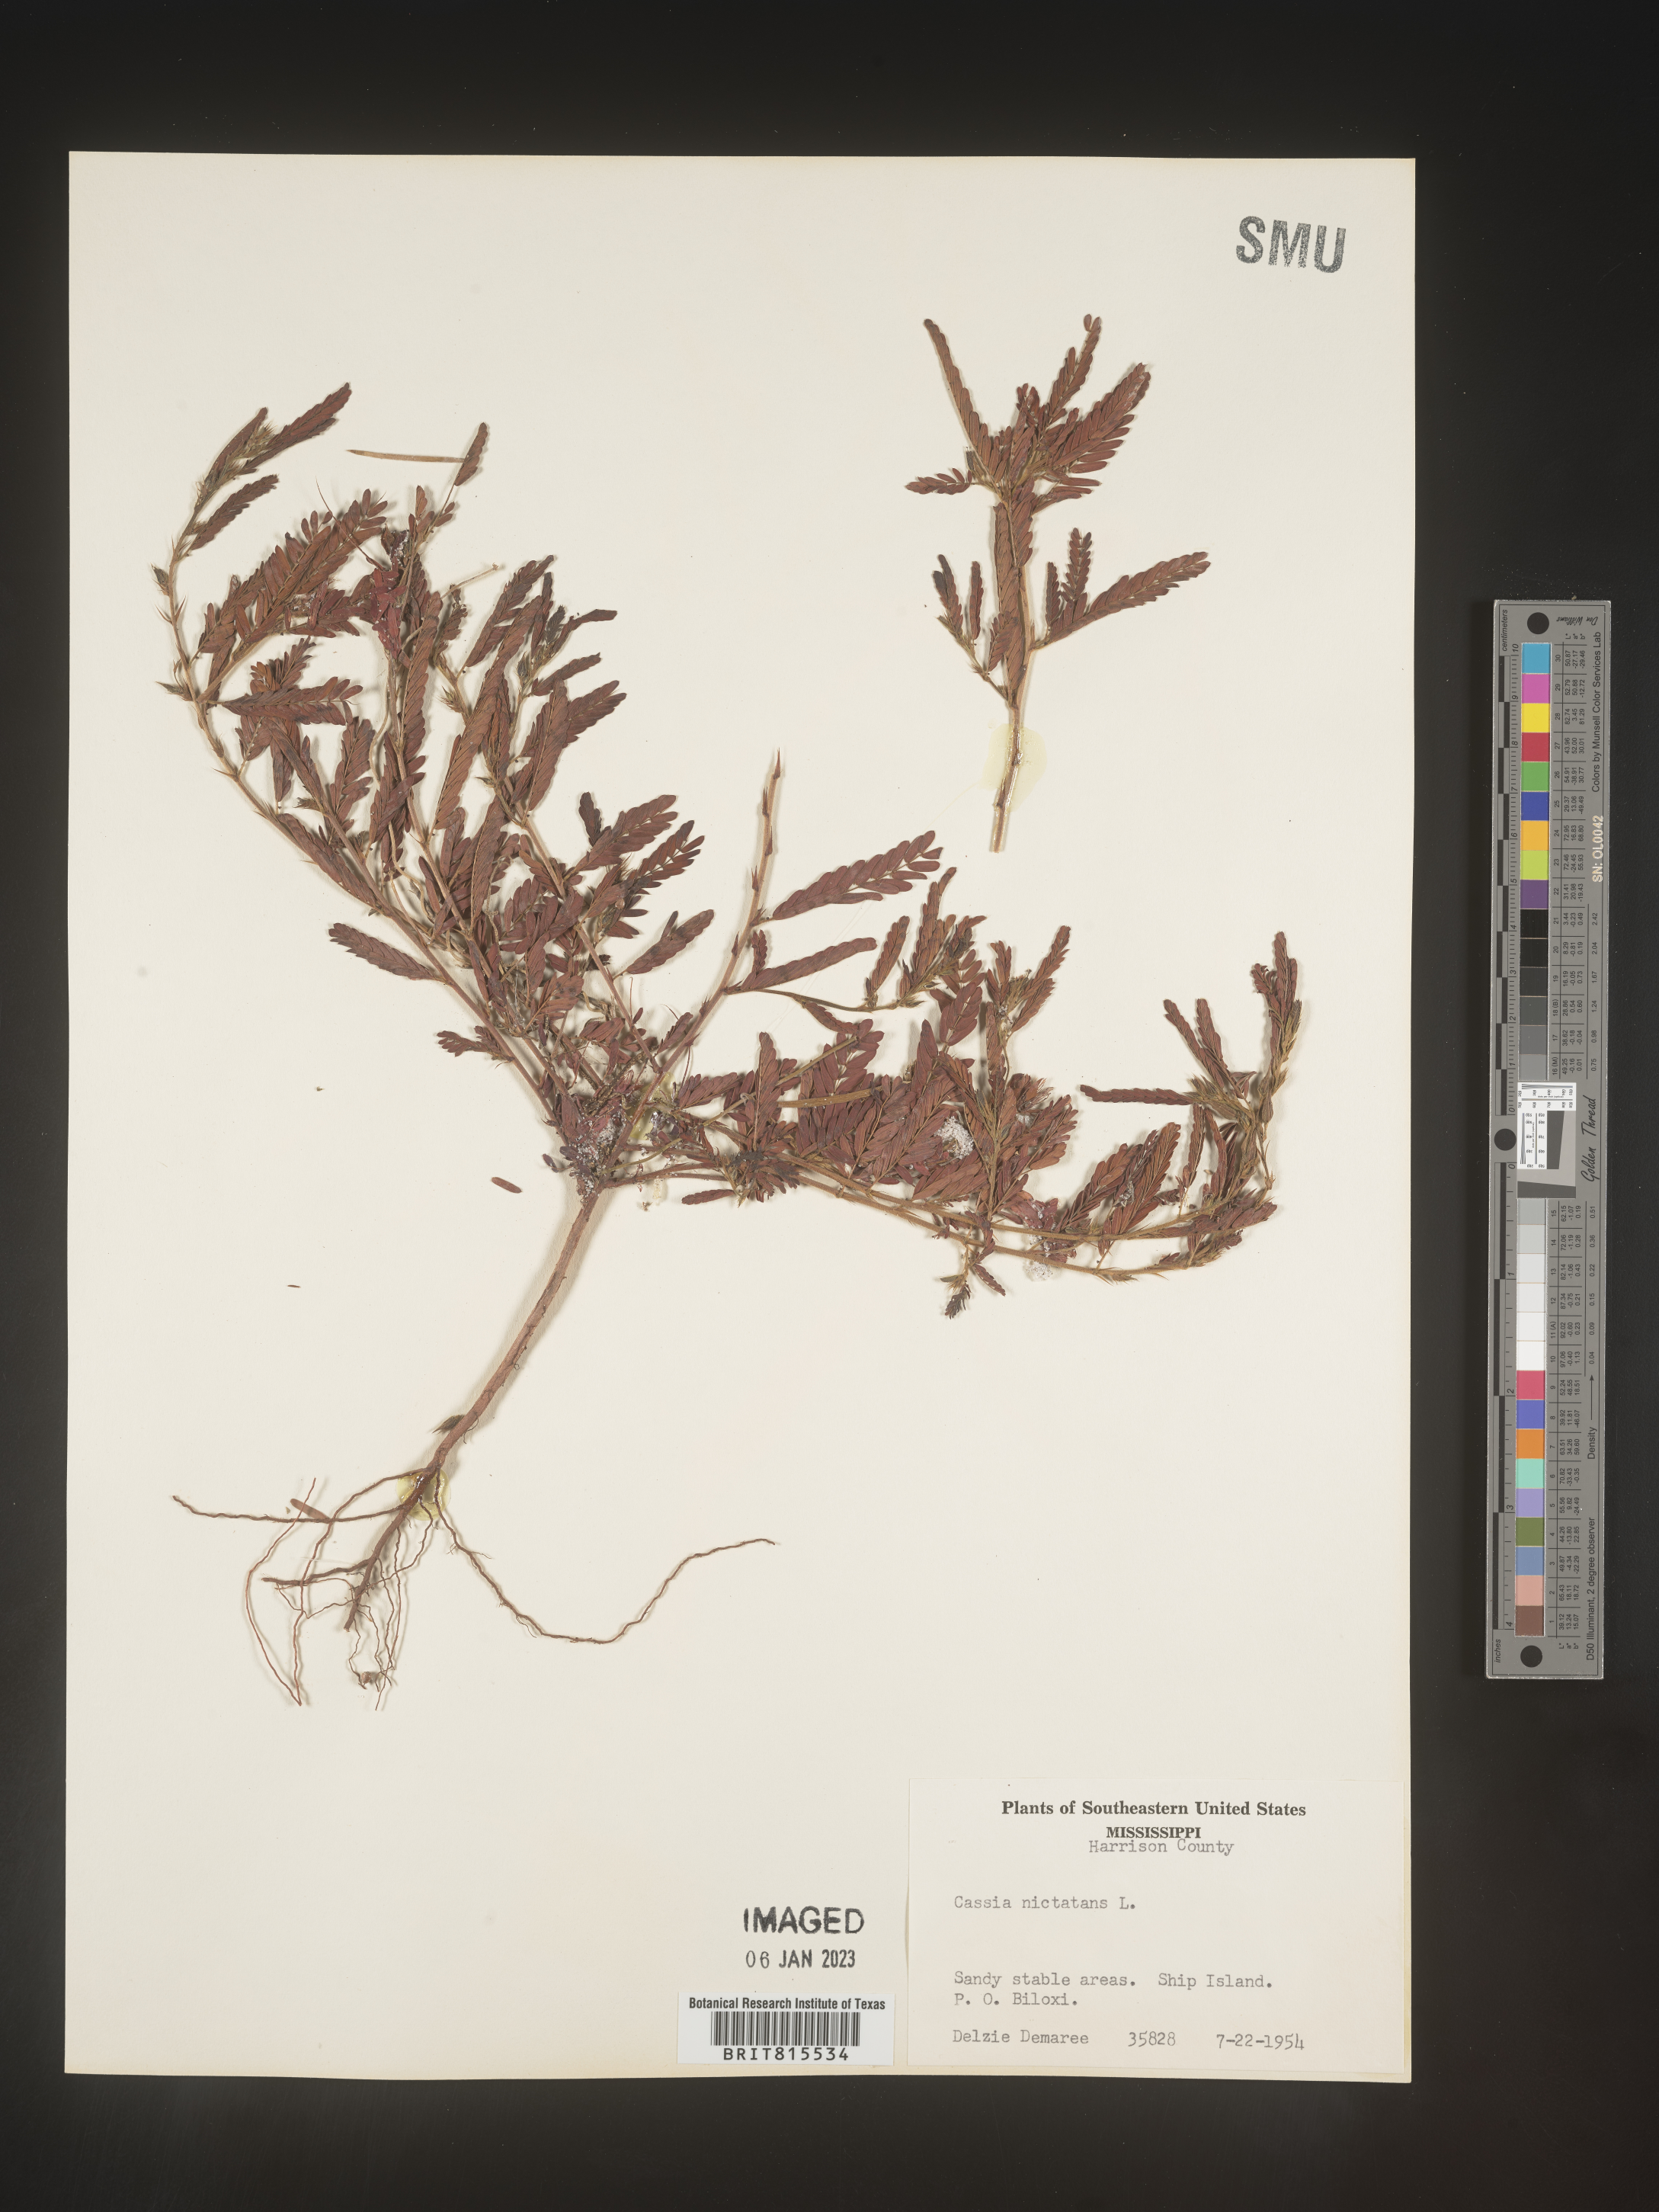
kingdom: Plantae
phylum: Tracheophyta
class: Magnoliopsida
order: Fabales
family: Fabaceae
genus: Chamaecrista
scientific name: Chamaecrista nictitans
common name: Sensitive cassia
